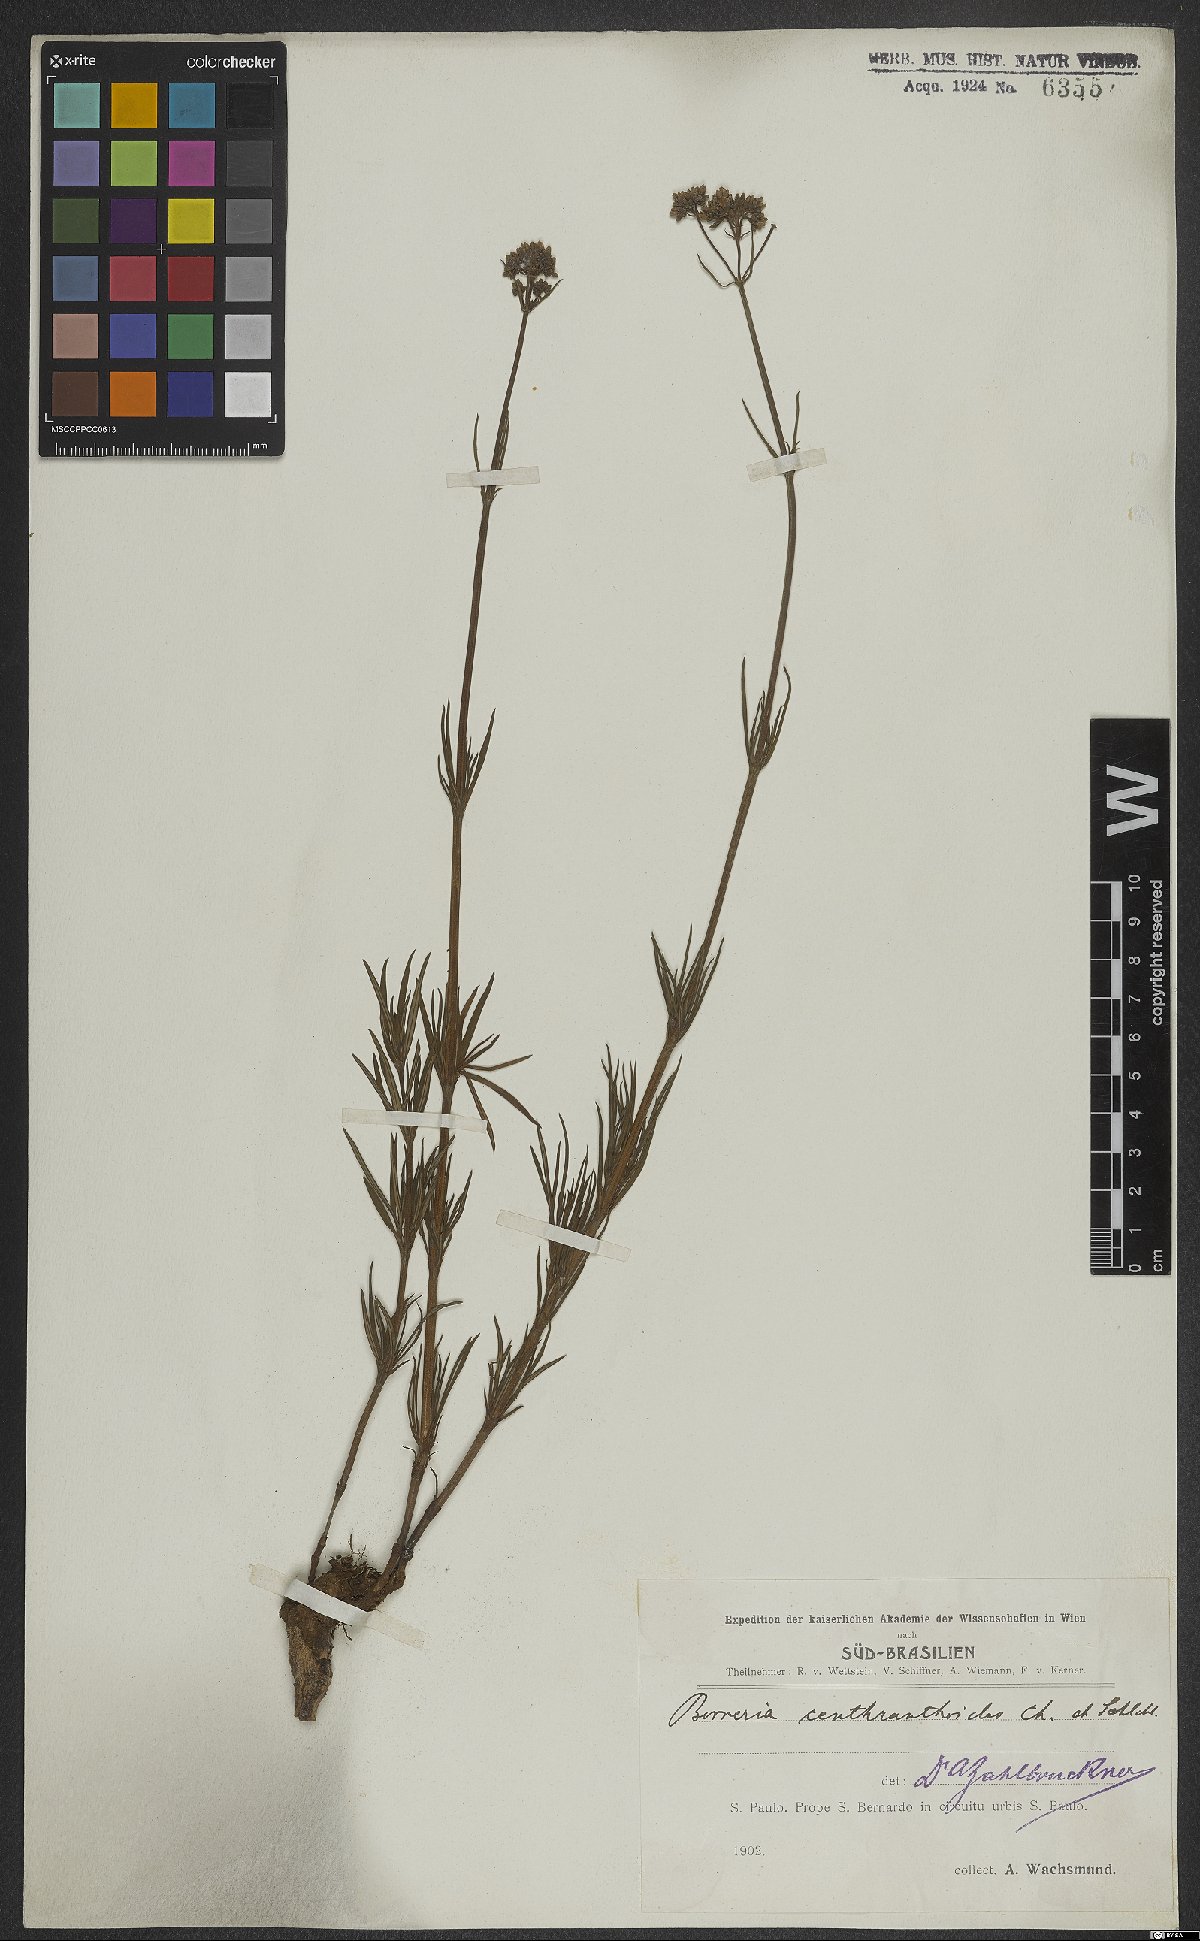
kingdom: Plantae
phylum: Tracheophyta
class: Magnoliopsida
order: Gentianales
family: Rubiaceae
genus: Galianthe
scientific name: Galianthe centranthoides
